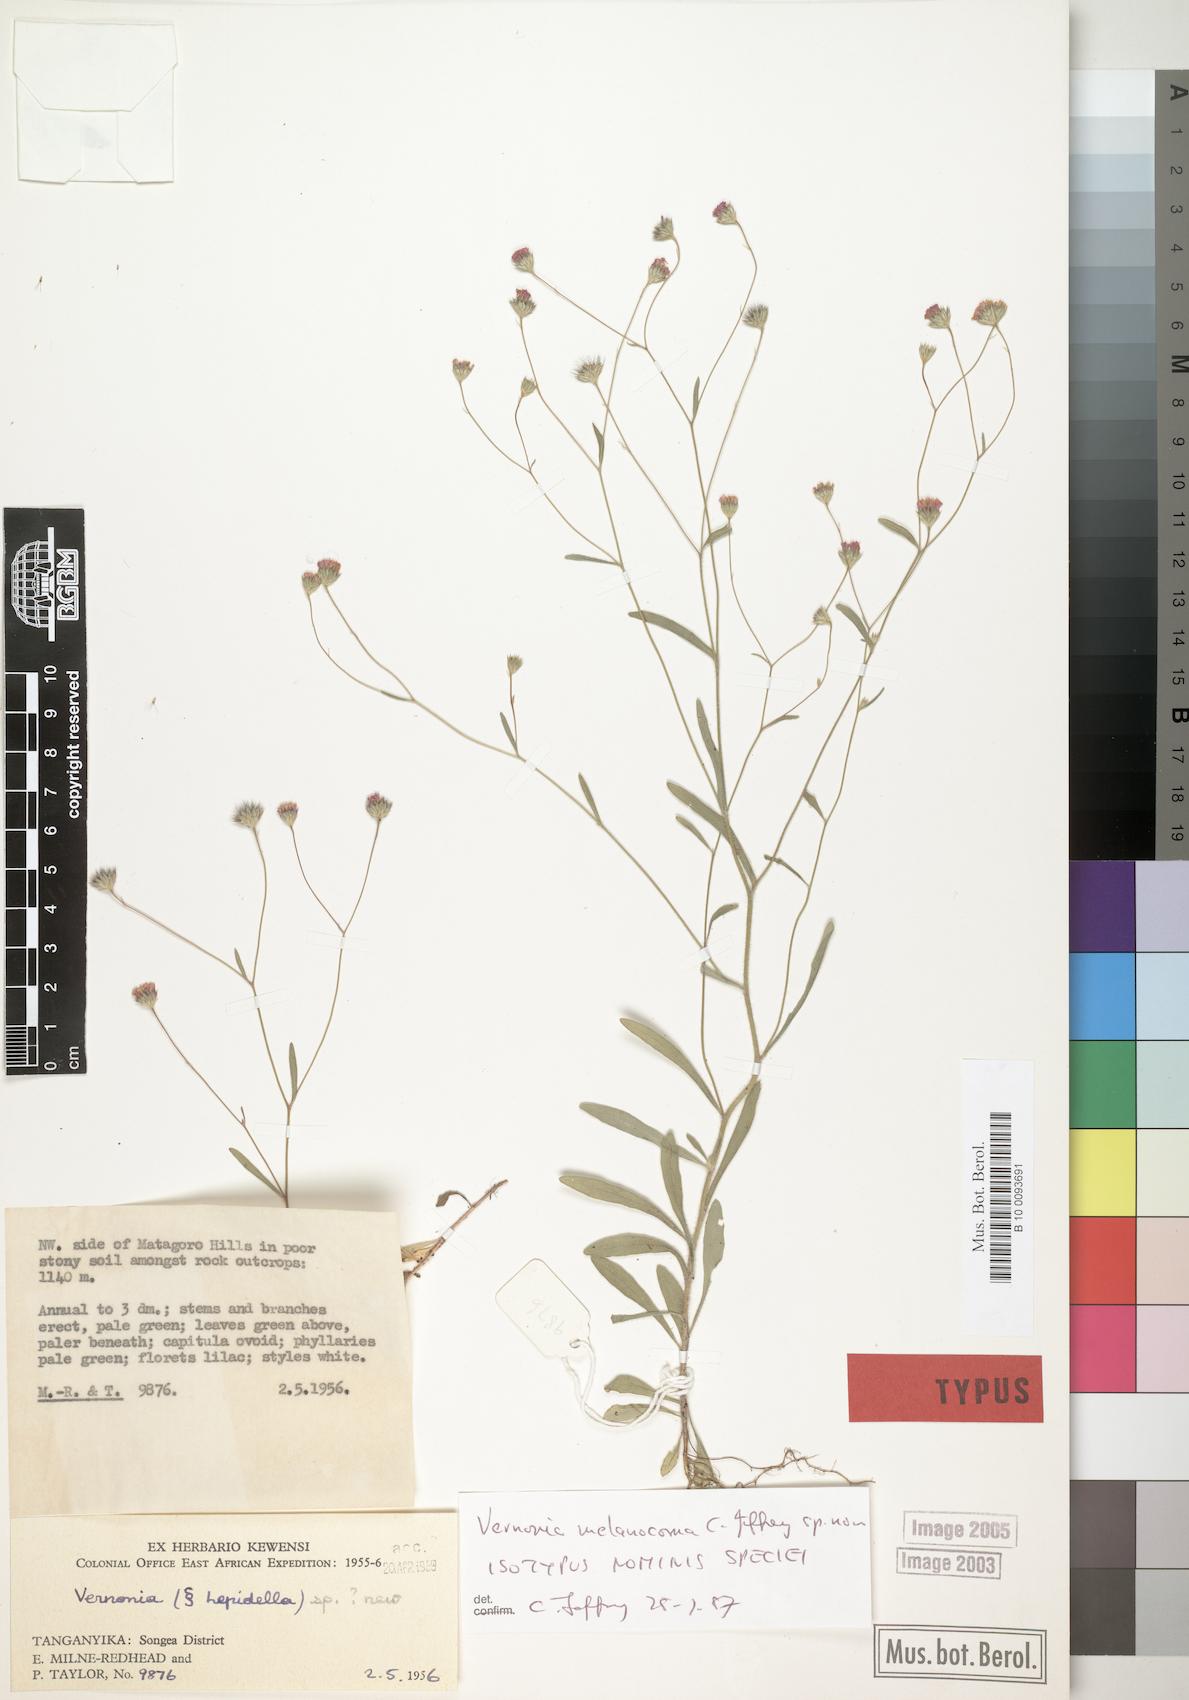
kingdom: Plantae
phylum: Tracheophyta
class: Magnoliopsida
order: Asterales
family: Asteraceae
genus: Vernonia
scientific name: Vernonia melanocoma
